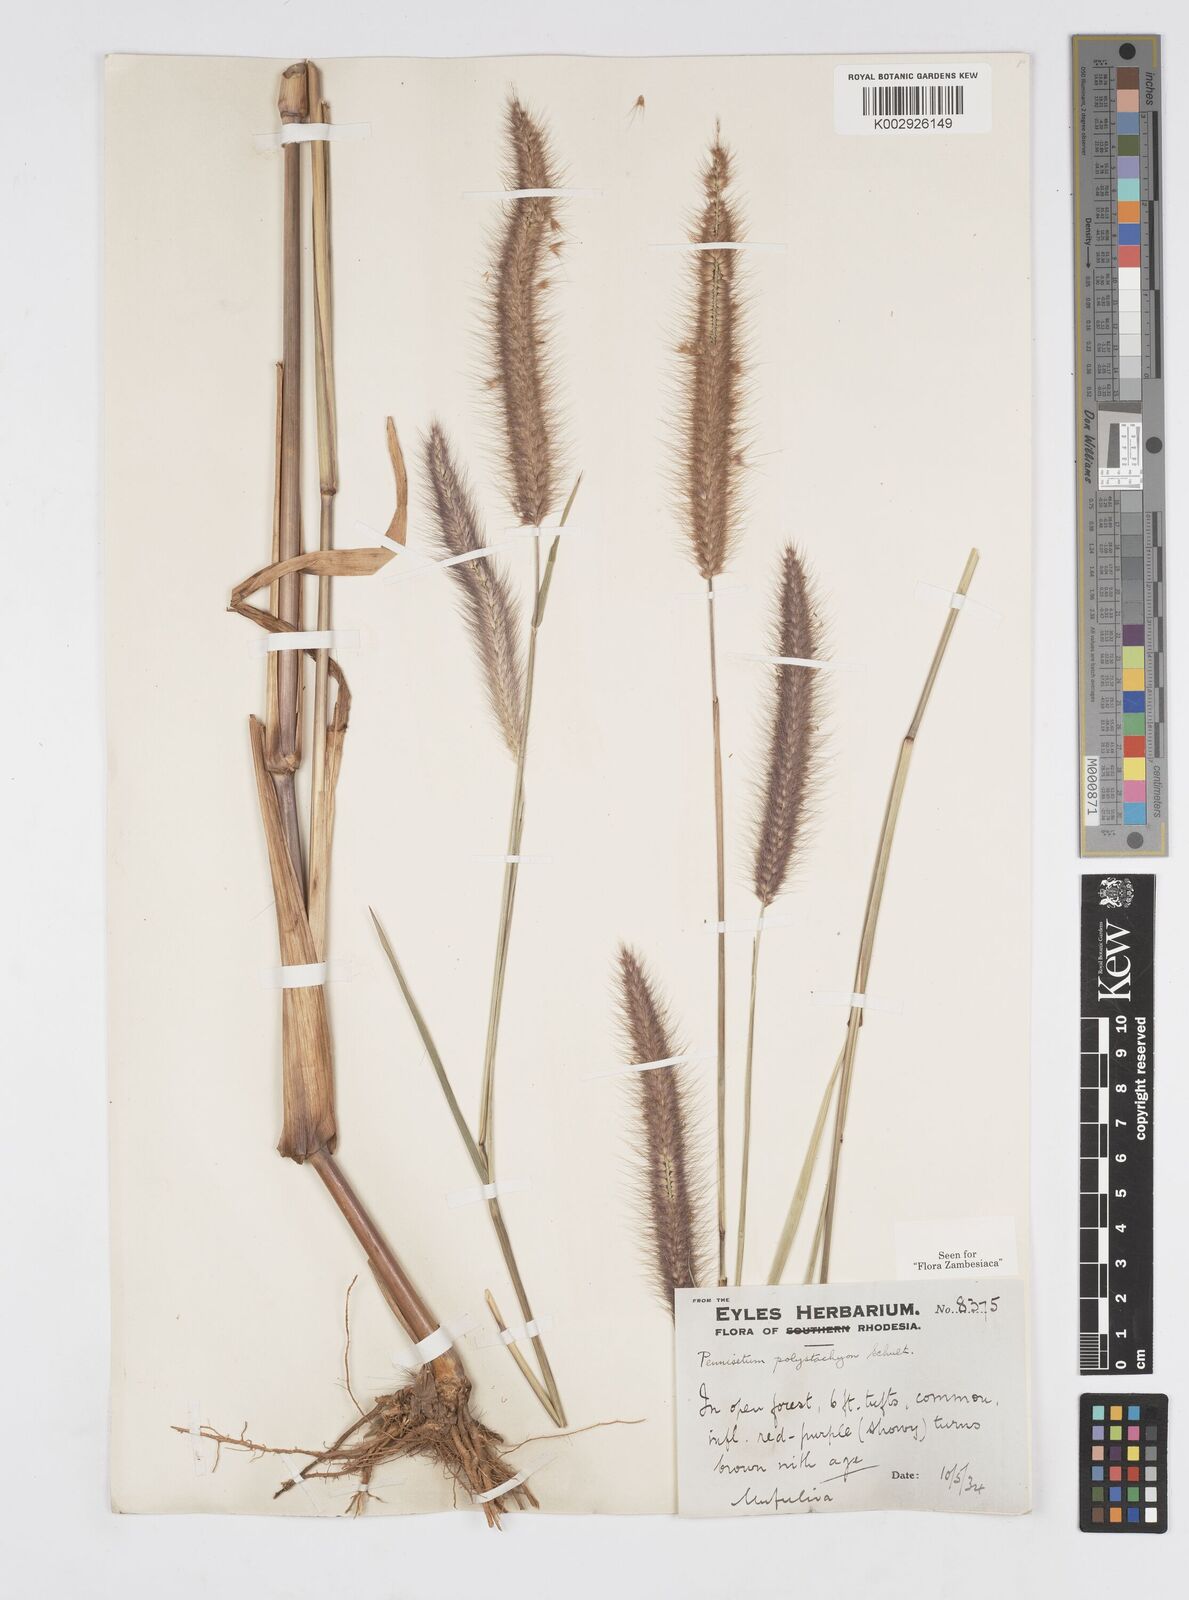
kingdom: Plantae
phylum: Tracheophyta
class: Liliopsida
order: Poales
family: Poaceae
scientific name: Poaceae
